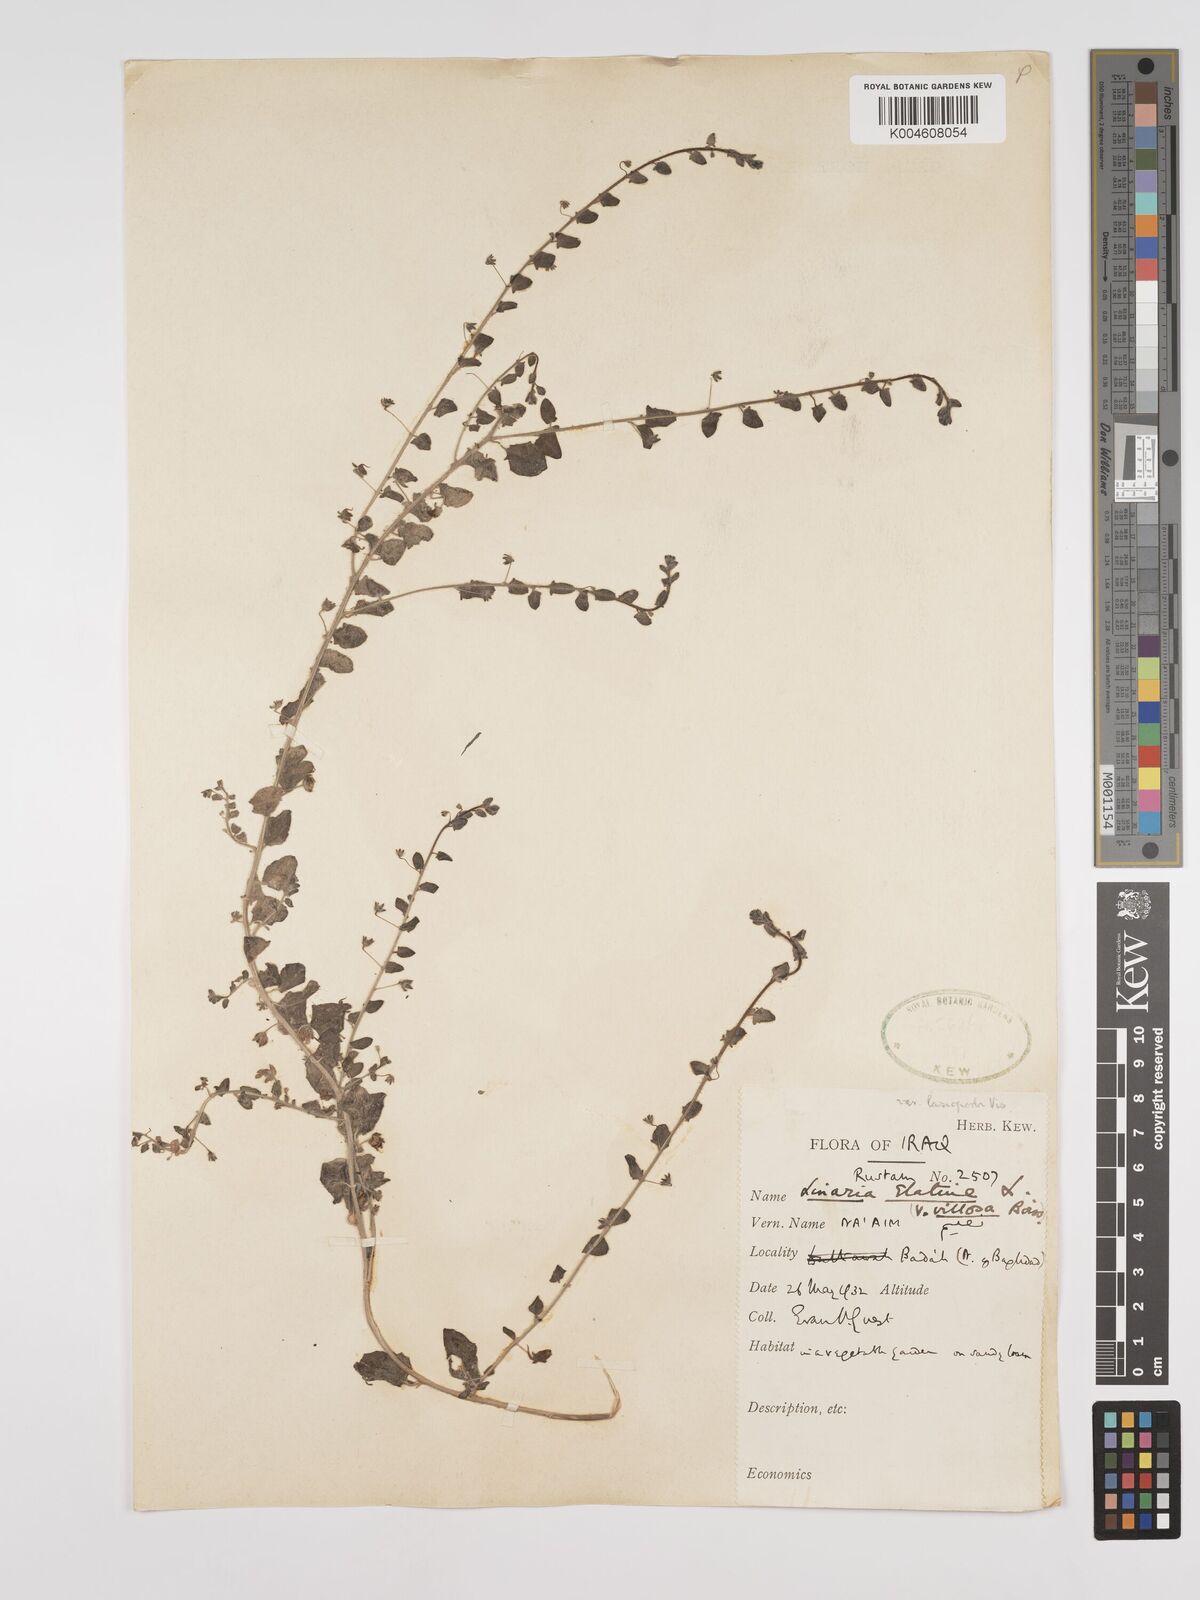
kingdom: Plantae
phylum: Tracheophyta
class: Magnoliopsida
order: Lamiales
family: Plantaginaceae
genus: Kickxia
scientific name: Kickxia elatine
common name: Sharp-leaved fluellen
